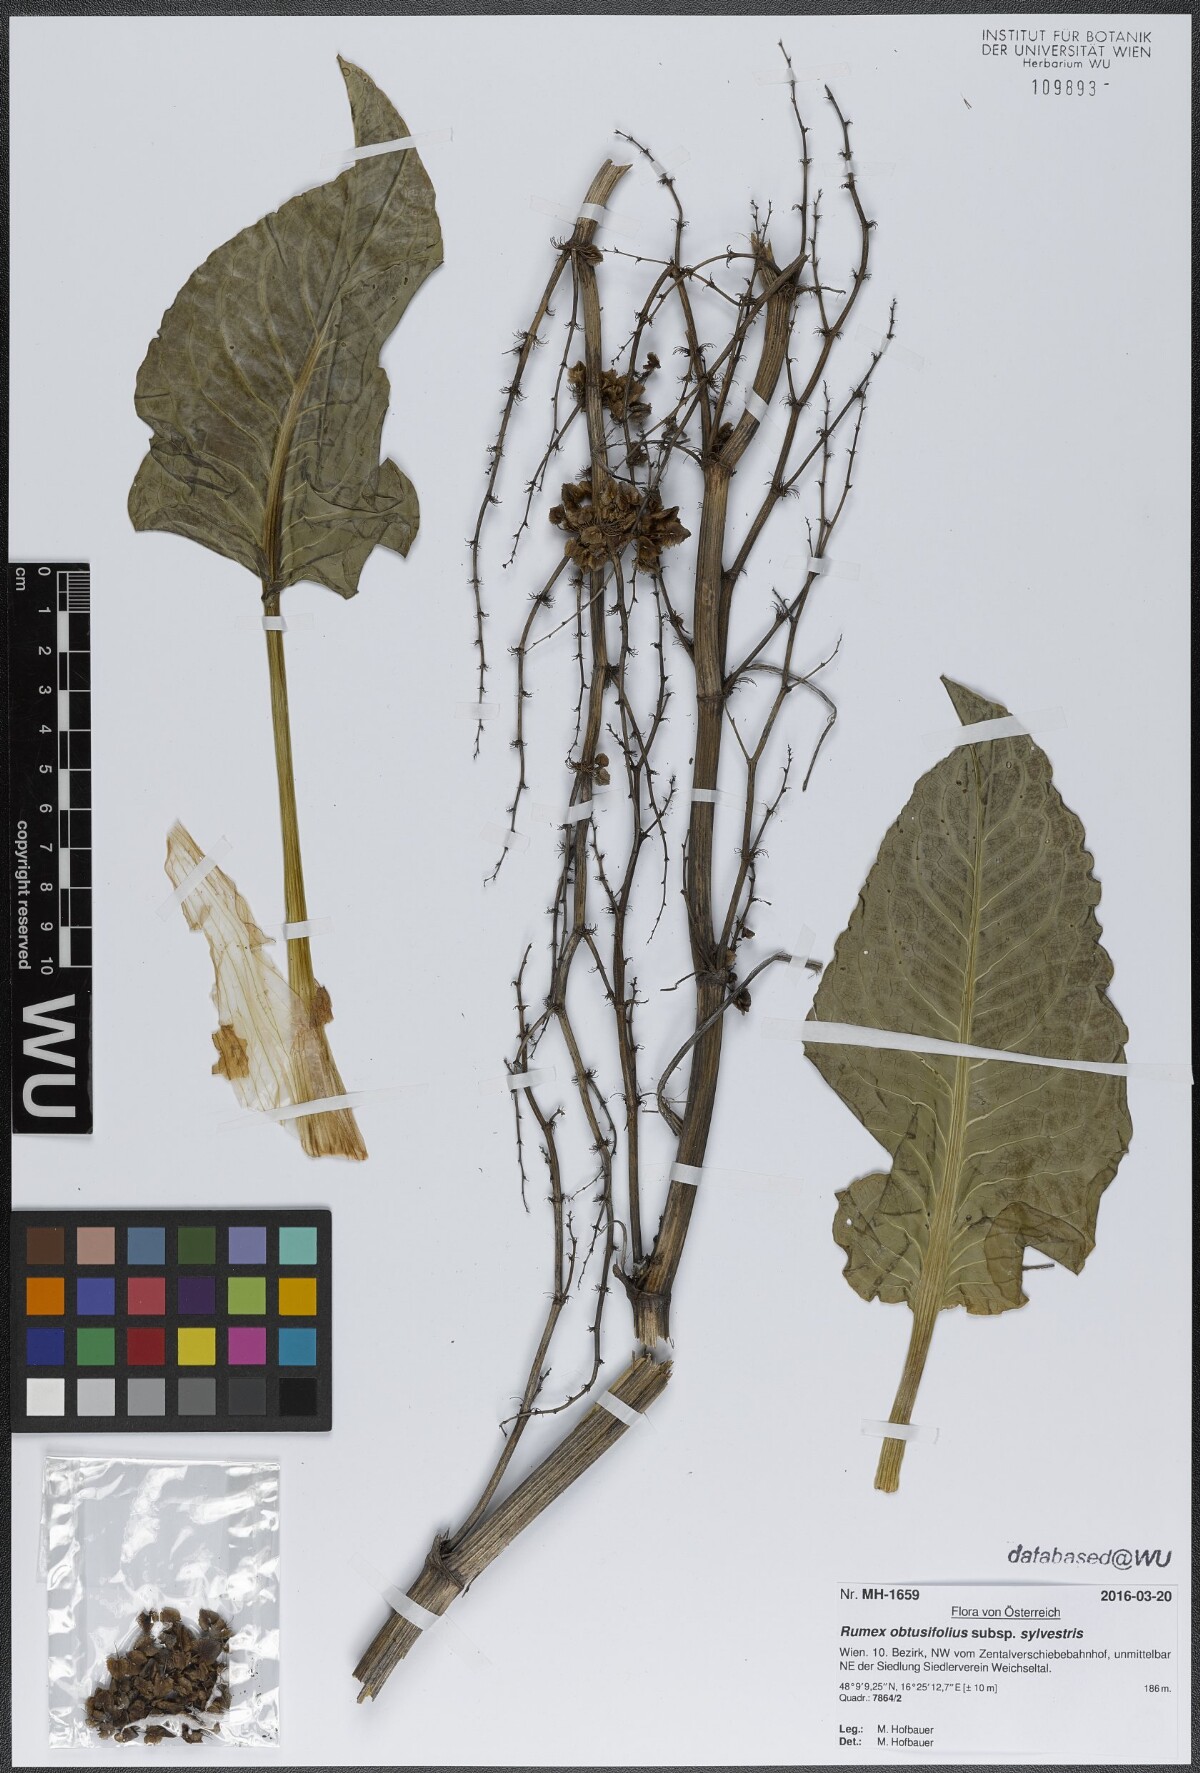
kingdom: Plantae
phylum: Tracheophyta
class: Magnoliopsida
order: Caryophyllales
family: Polygonaceae
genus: Rumex
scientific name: Rumex obtusifolius
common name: Bitter dock
